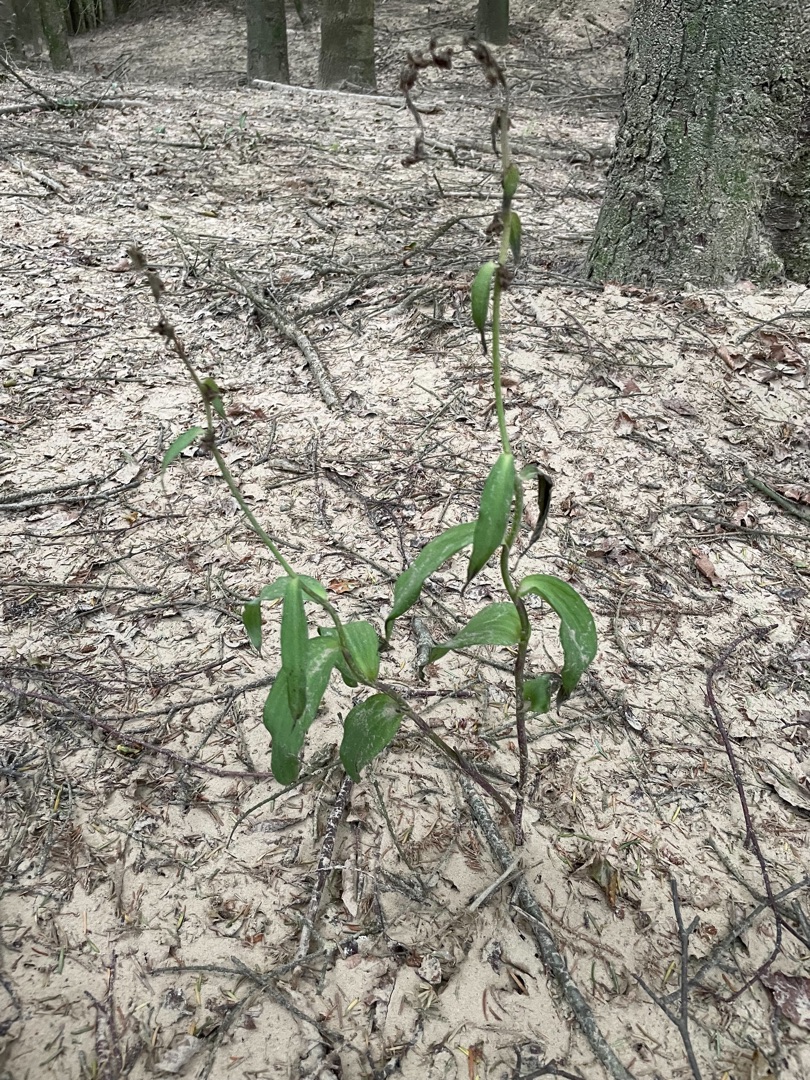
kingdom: Plantae
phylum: Tracheophyta
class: Liliopsida
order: Asparagales
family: Orchidaceae
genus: Epipactis
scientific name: Epipactis atrorubens
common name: Rød hullæbe
